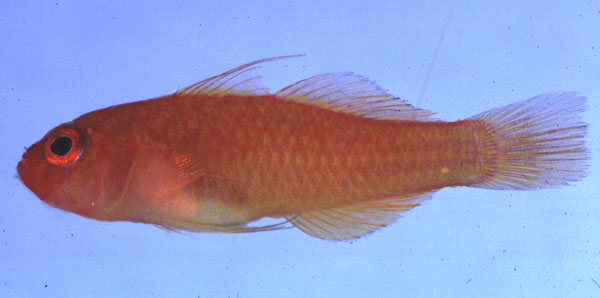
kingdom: Animalia
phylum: Chordata
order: Perciformes
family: Gobiidae
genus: Trimma
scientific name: Trimma benjamini
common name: Redface dwarfgoby
